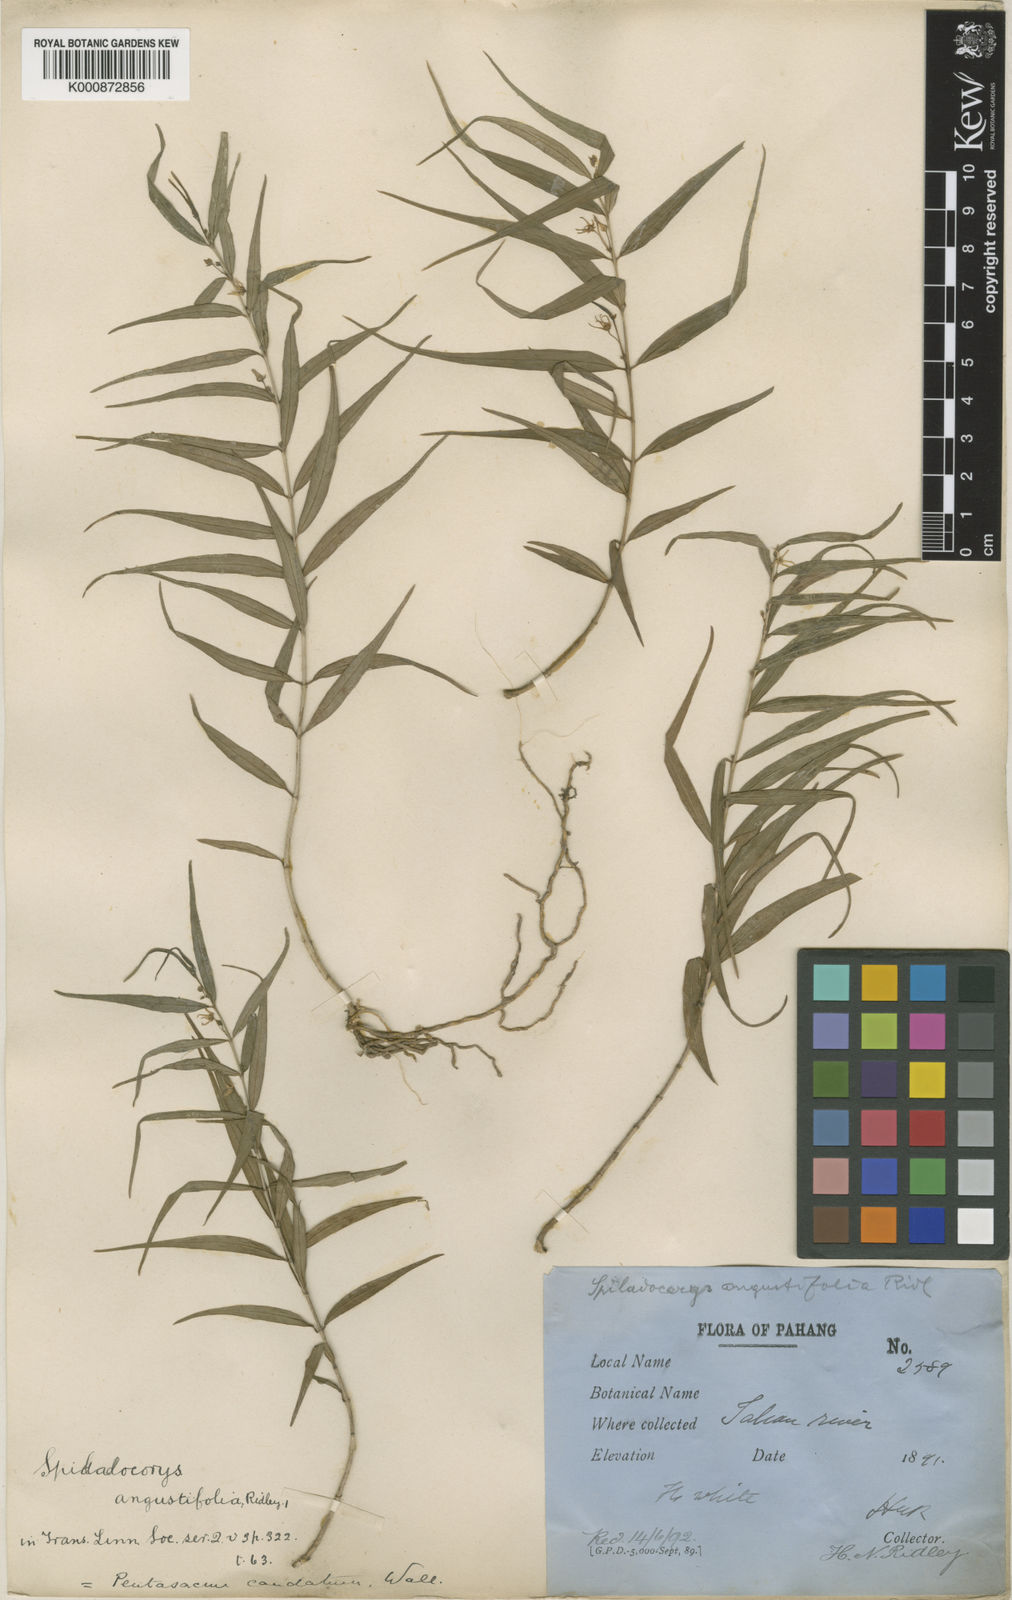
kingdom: Plantae
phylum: Tracheophyta
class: Magnoliopsida
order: Gentianales
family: Apocynaceae
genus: Pentasachme
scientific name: Pentasachme caudatum
